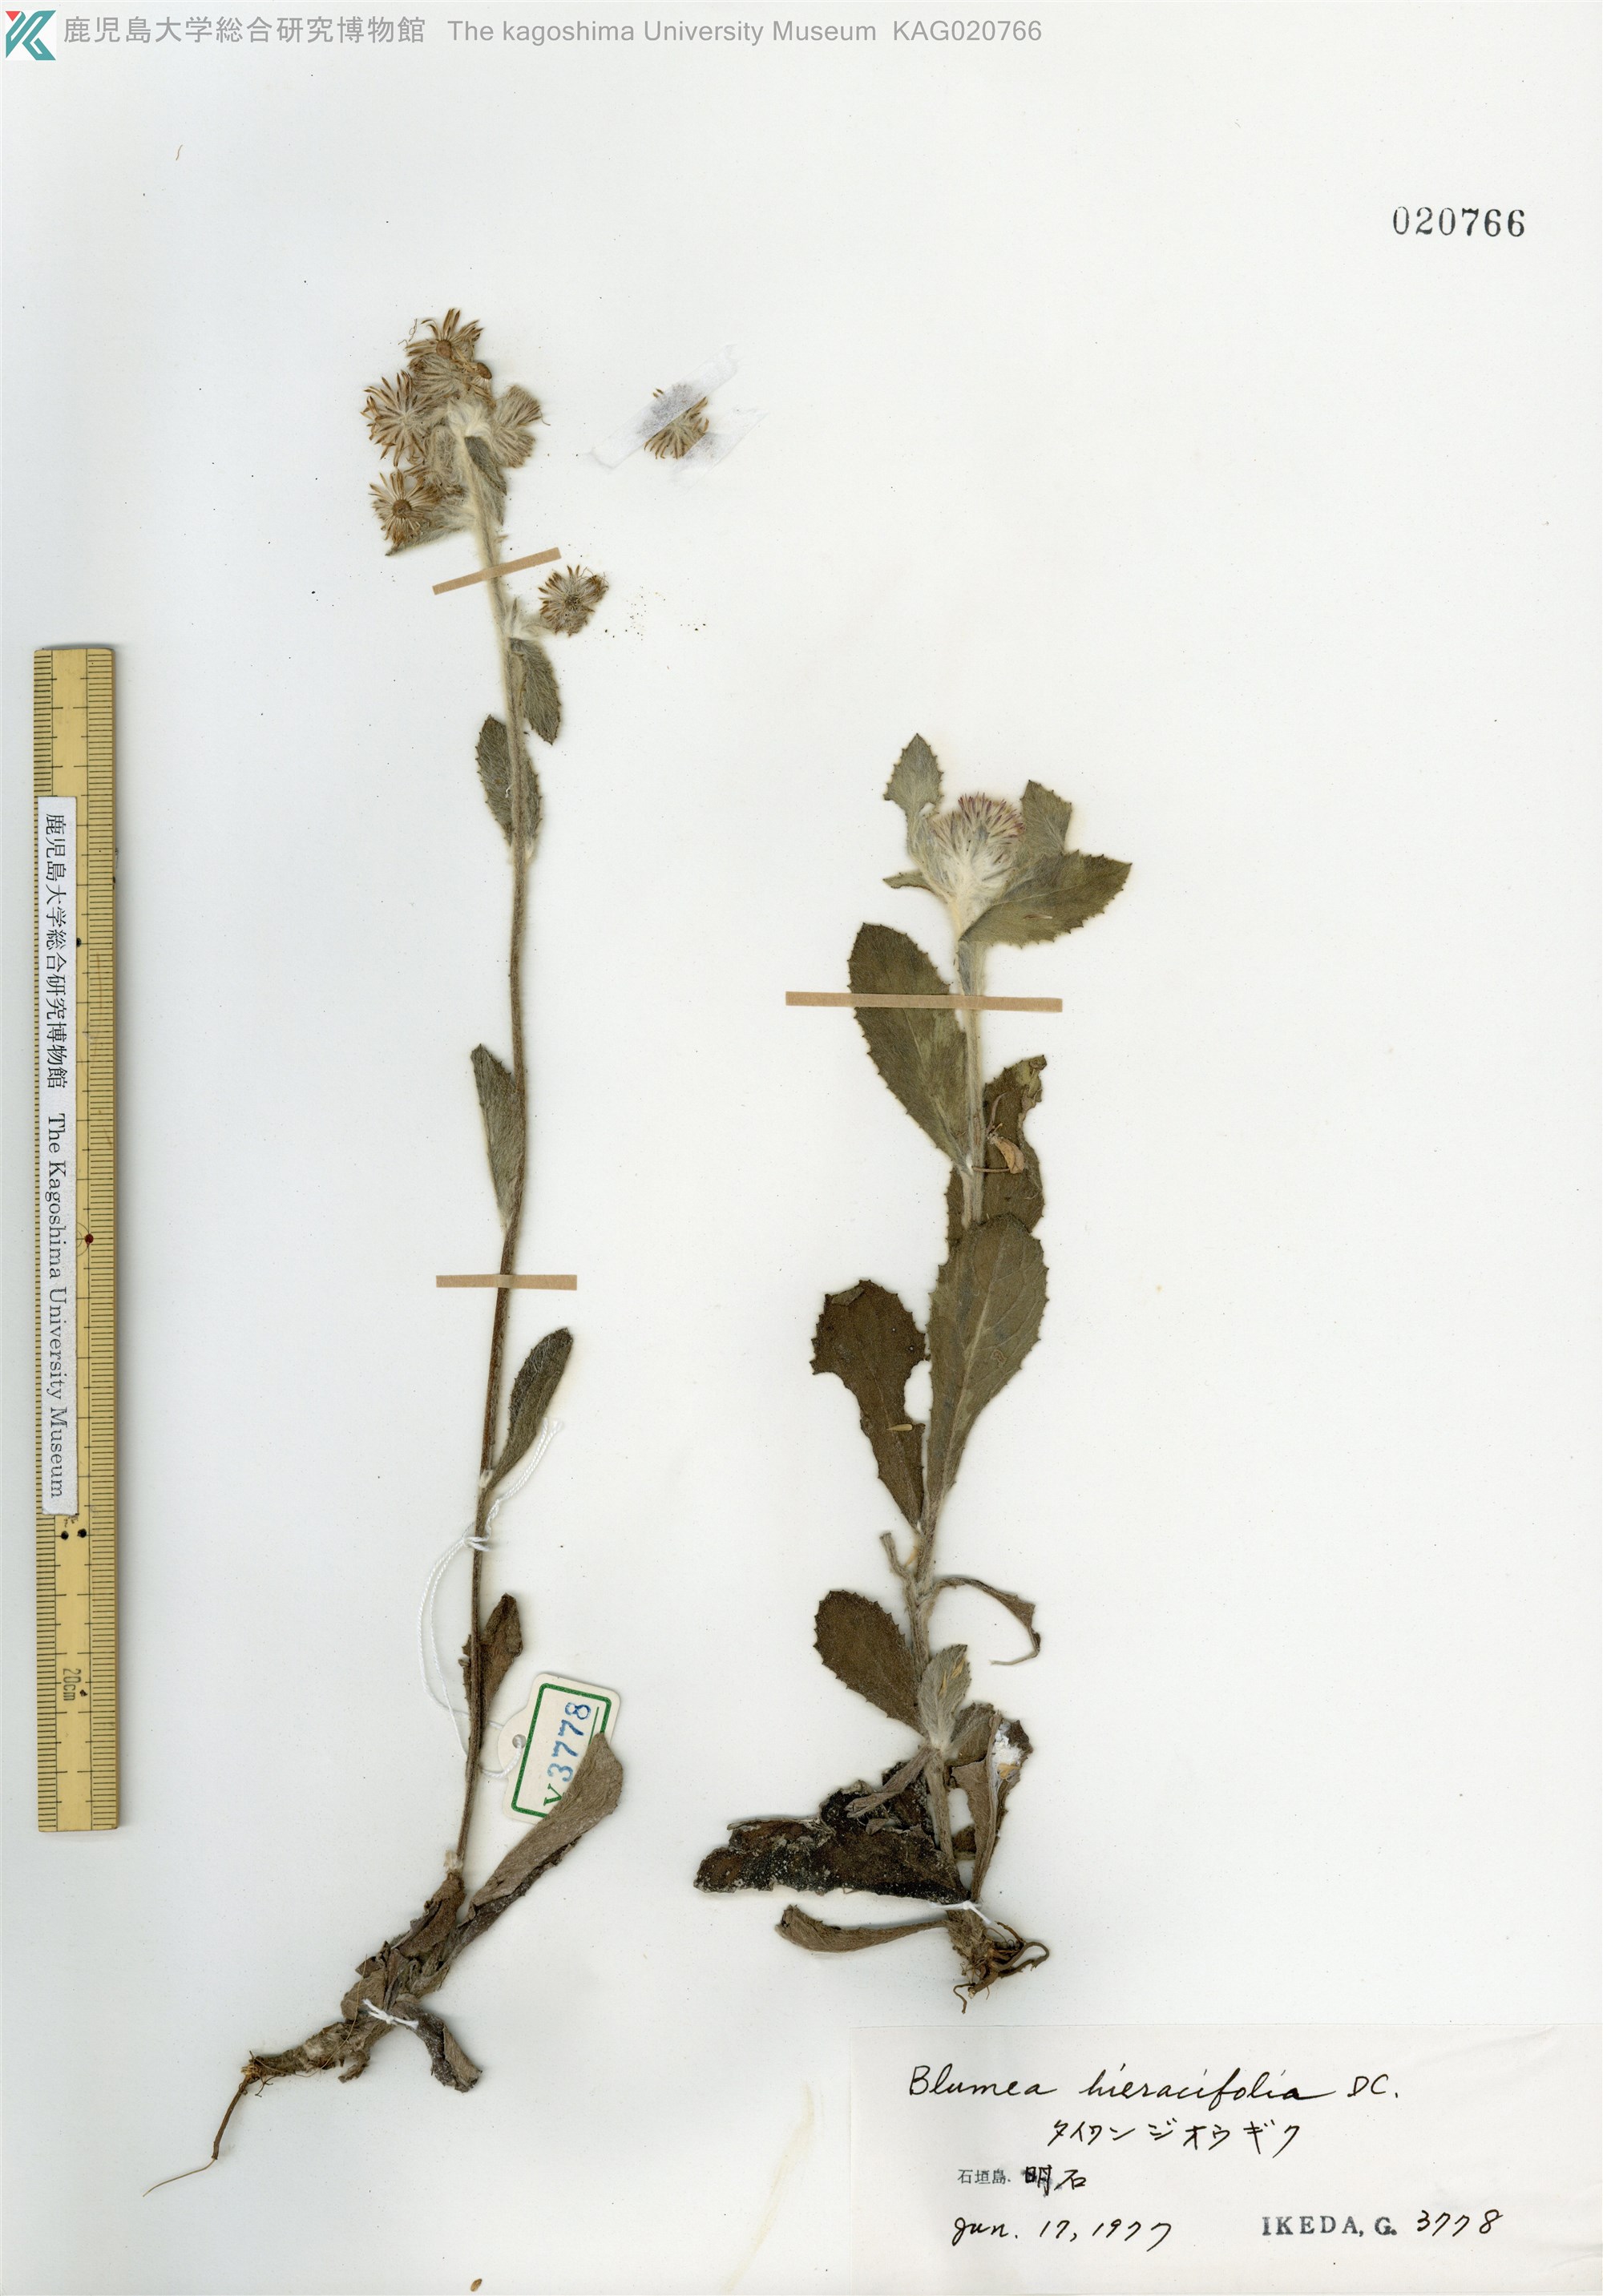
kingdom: Plantae
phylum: Tracheophyta
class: Magnoliopsida
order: Asterales
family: Asteraceae
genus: Blumea
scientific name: Blumea hieraciifolia
